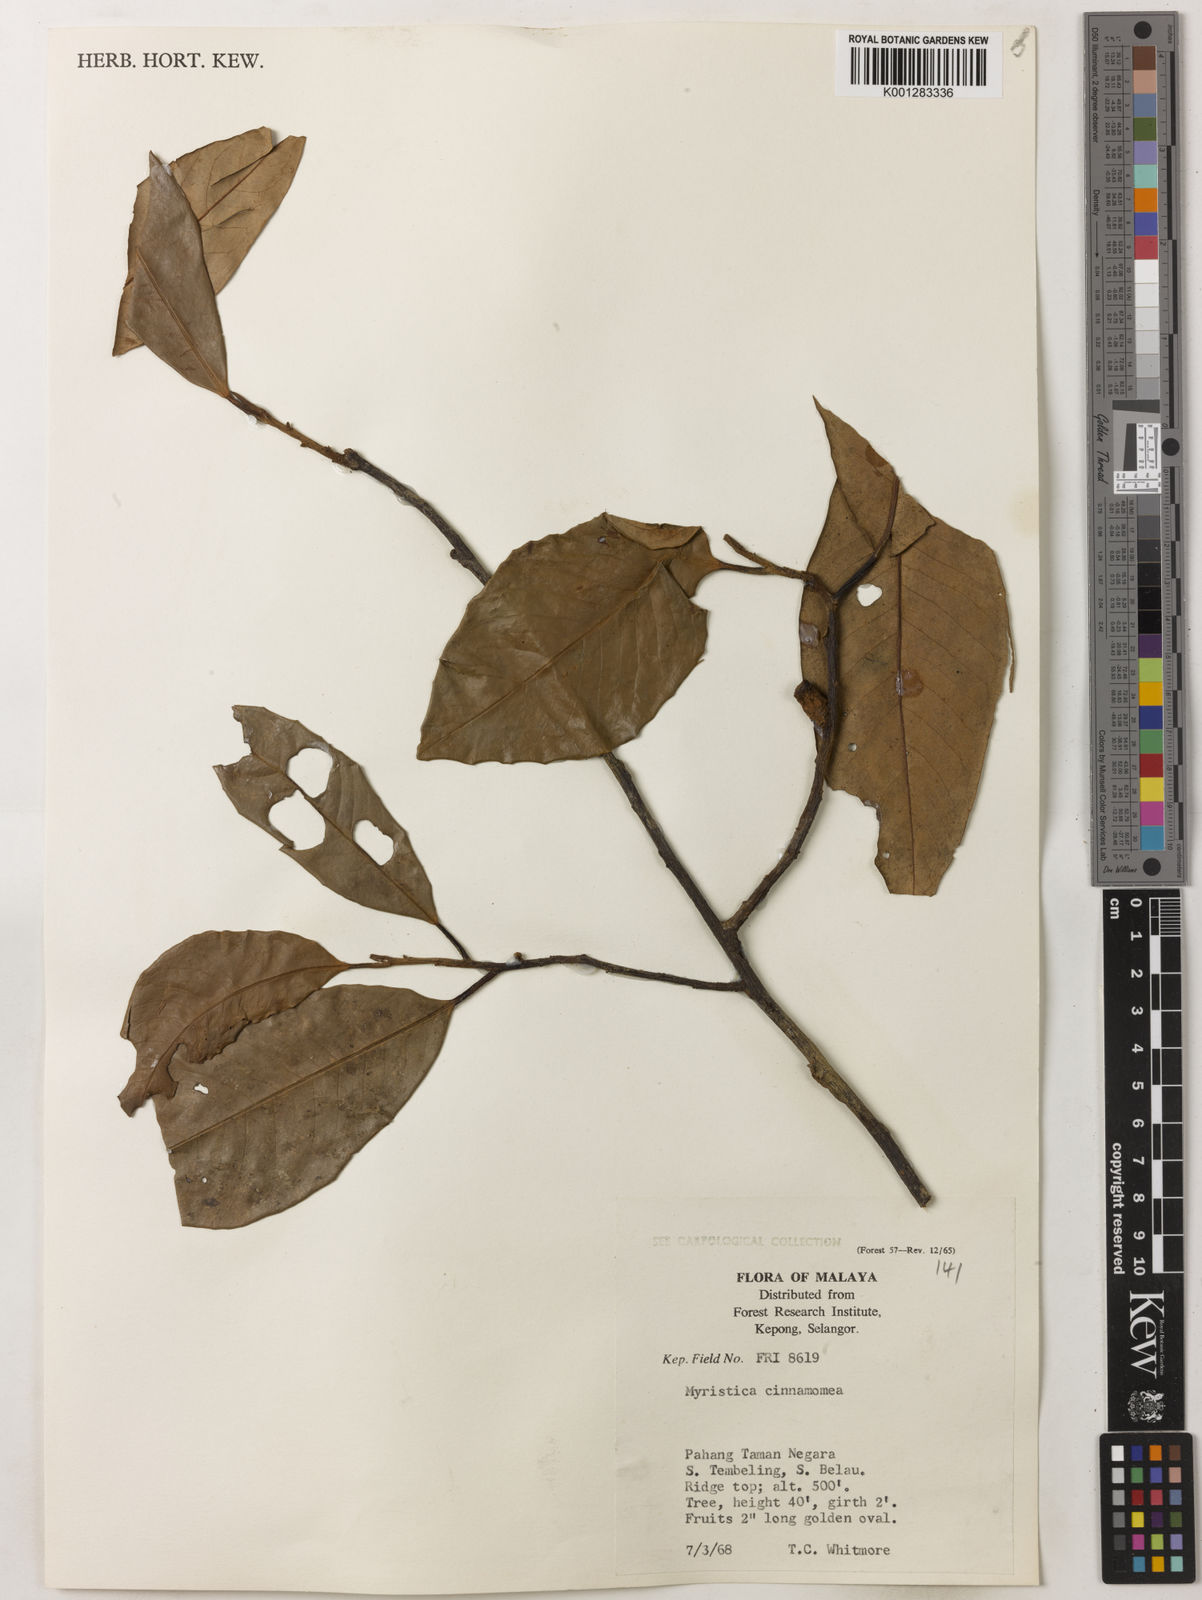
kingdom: Plantae
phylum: Tracheophyta
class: Magnoliopsida
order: Magnoliales
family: Myristicaceae
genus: Myristica
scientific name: Myristica cinnamomea
